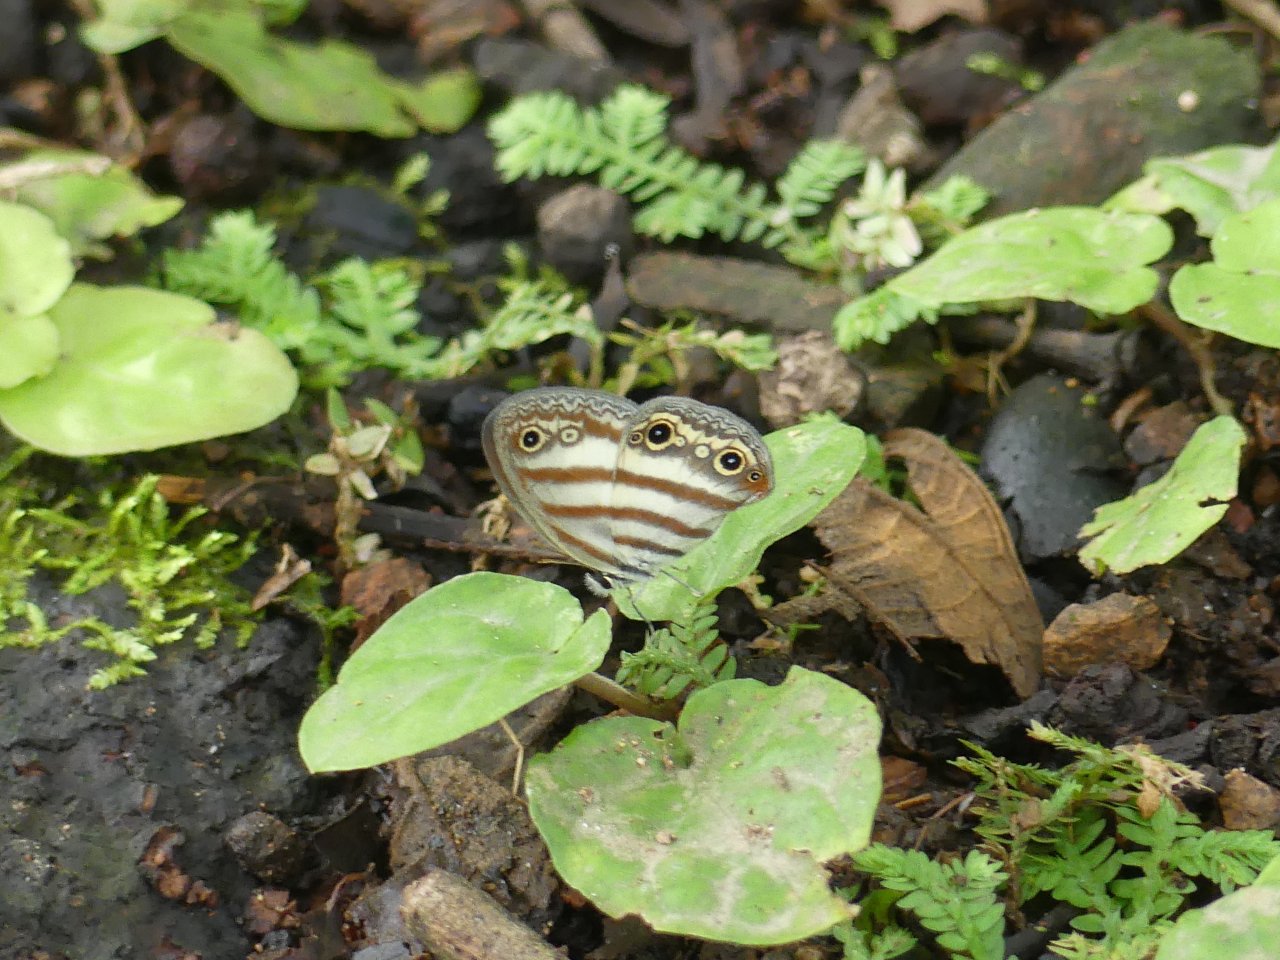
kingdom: Animalia
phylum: Arthropoda
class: Insecta
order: Lepidoptera
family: Nymphalidae
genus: Euptychia
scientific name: Euptychia mollina
